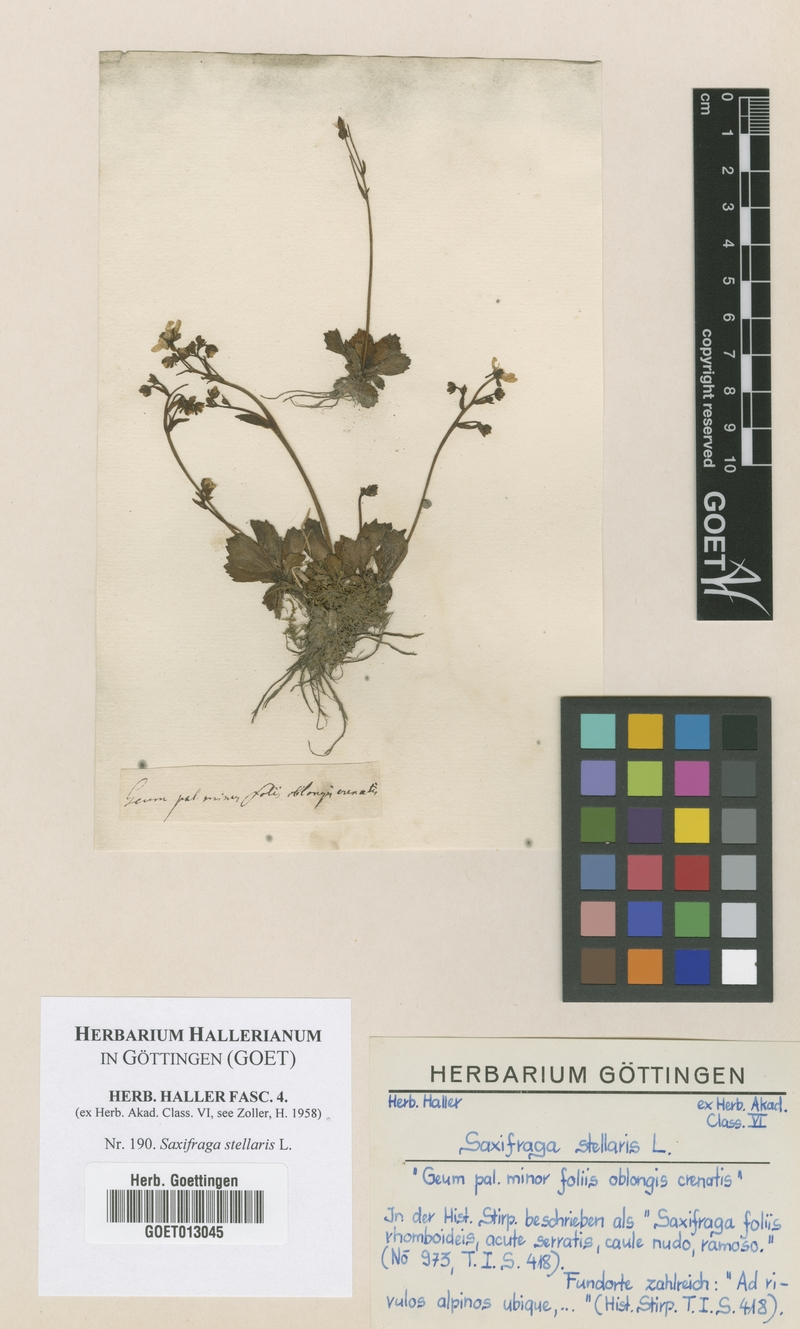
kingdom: Plantae
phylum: Tracheophyta
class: Magnoliopsida
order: Saxifragales
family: Saxifragaceae
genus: Micranthes
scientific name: Micranthes stellaris
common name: Starry saxifrage
